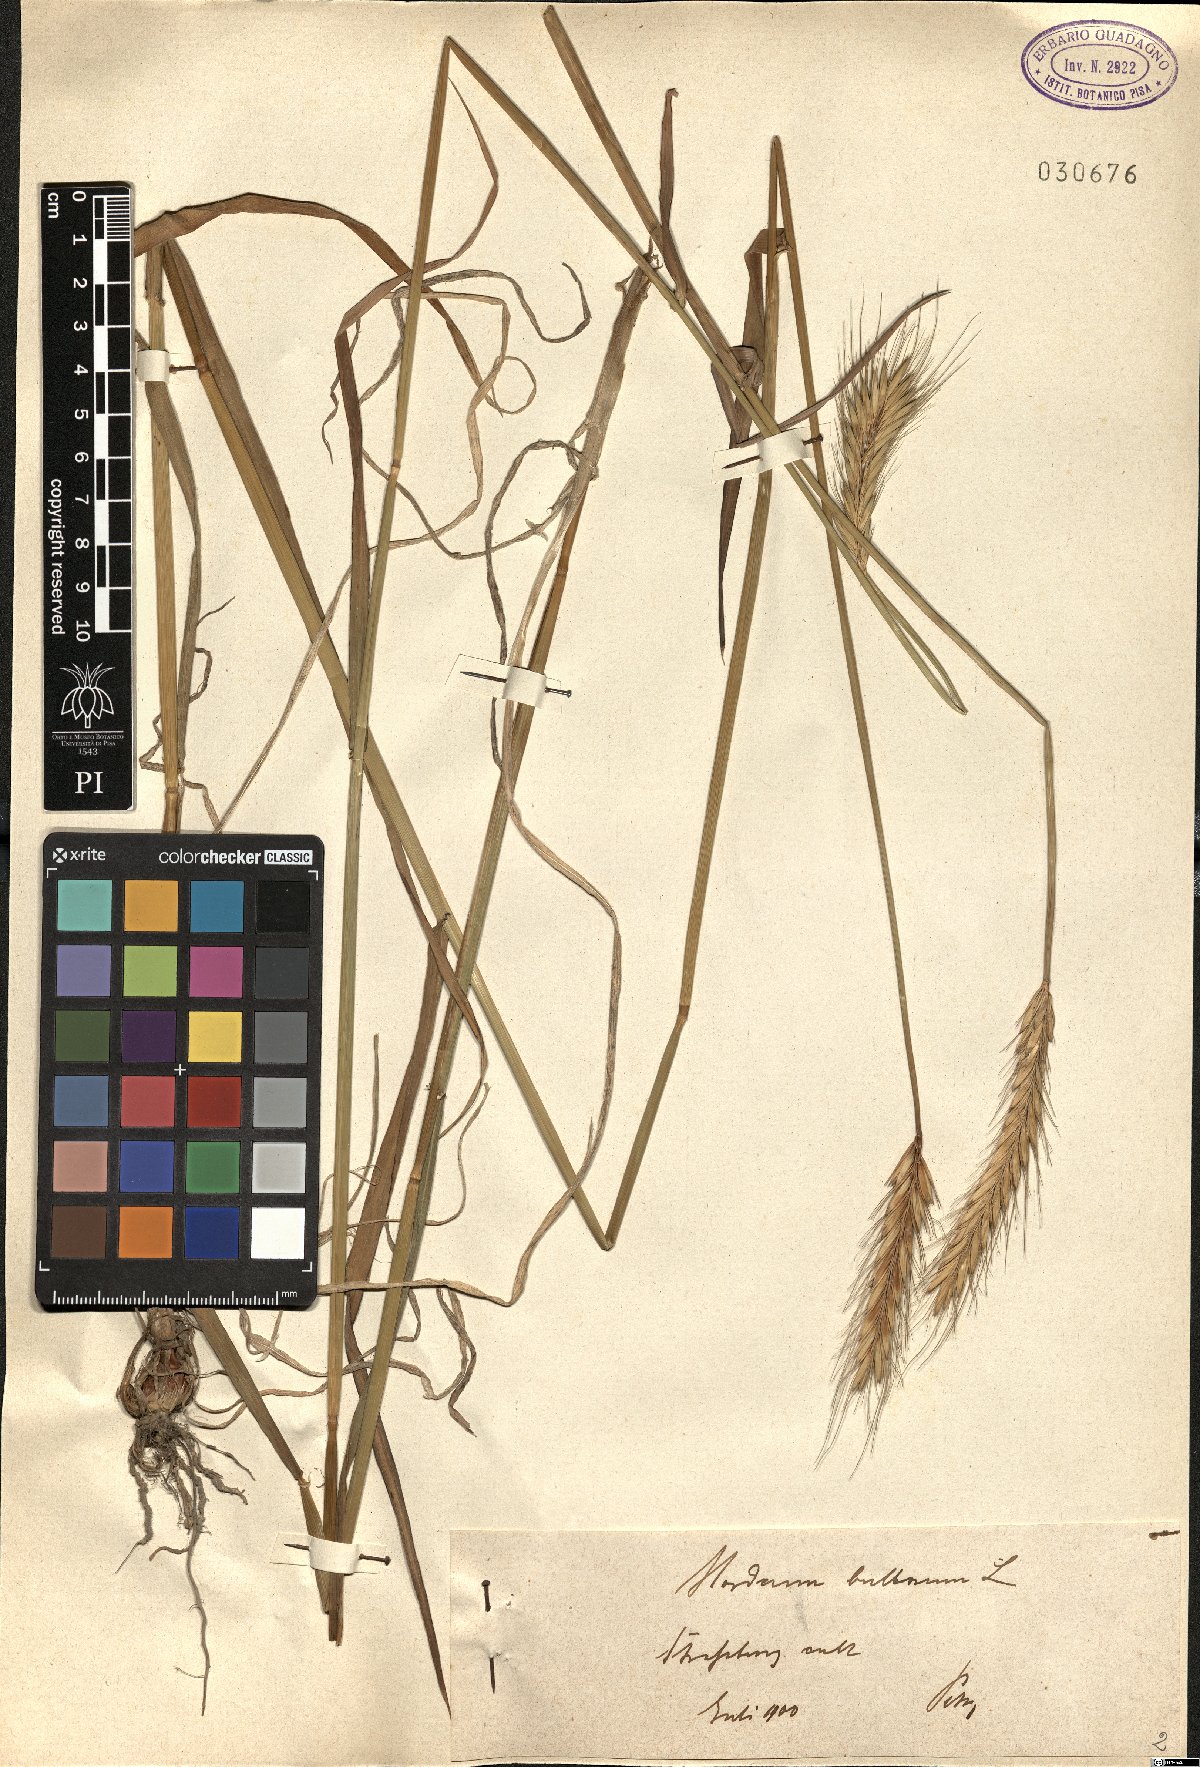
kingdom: Plantae
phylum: Tracheophyta
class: Liliopsida
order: Poales
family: Poaceae
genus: Hordeum
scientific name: Hordeum bulbosum
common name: Bulbous barley
